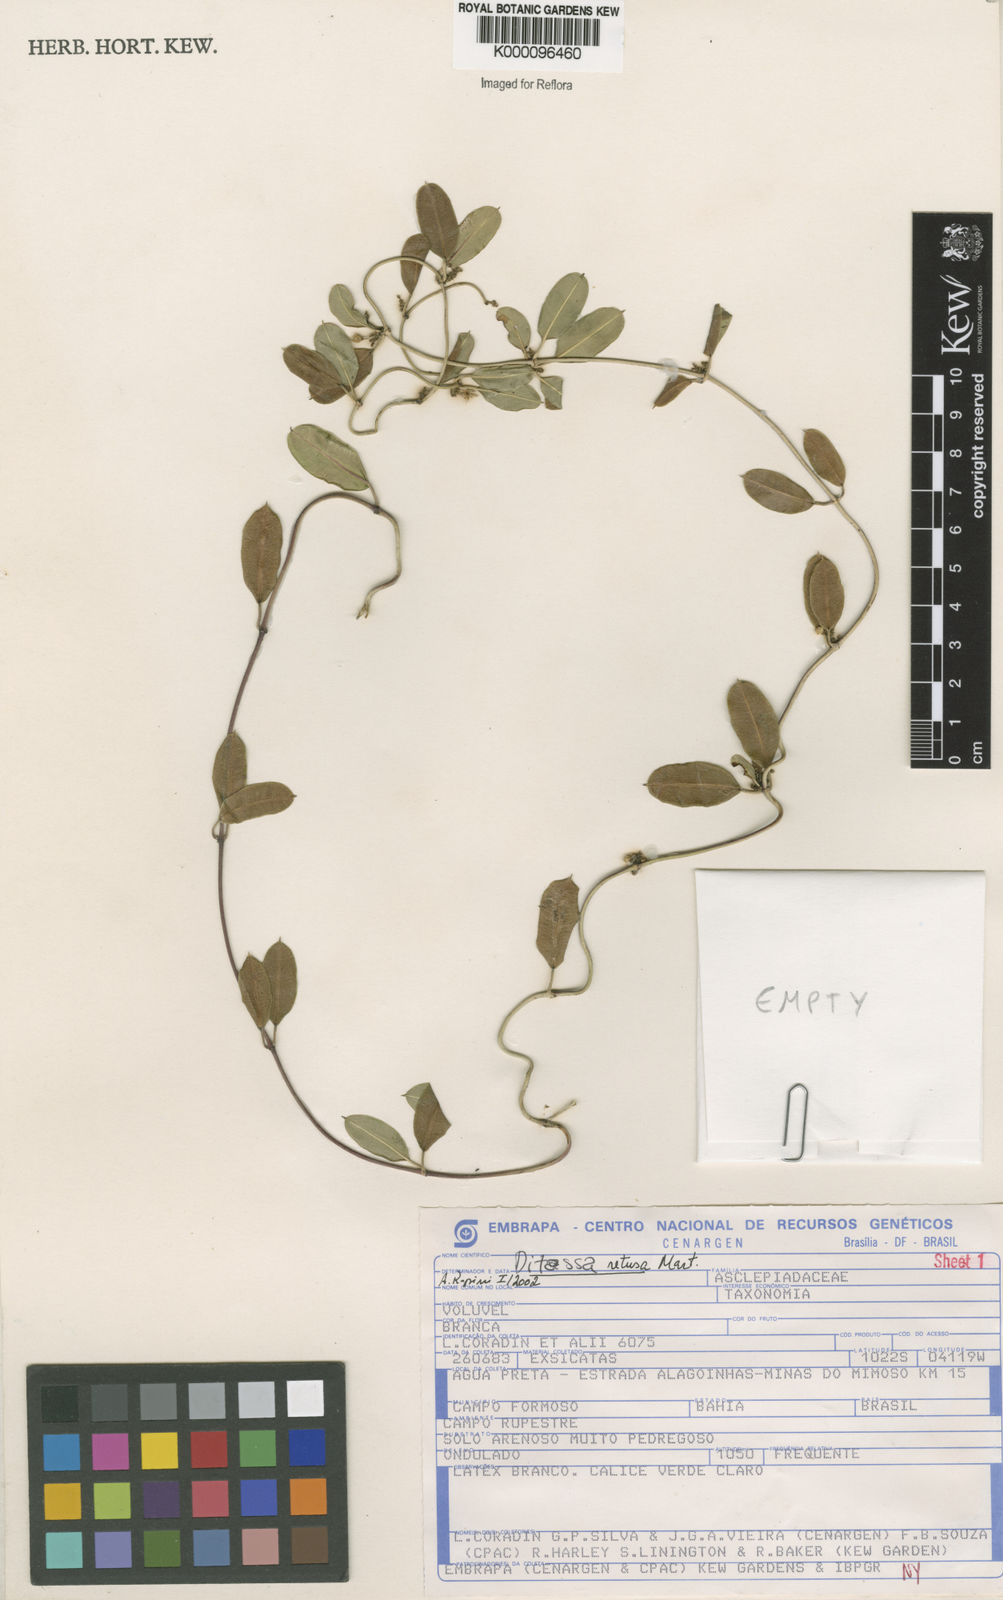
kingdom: Plantae
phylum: Tracheophyta
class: Magnoliopsida
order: Gentianales
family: Apocynaceae
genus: Ditassa
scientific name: Ditassa retusa
